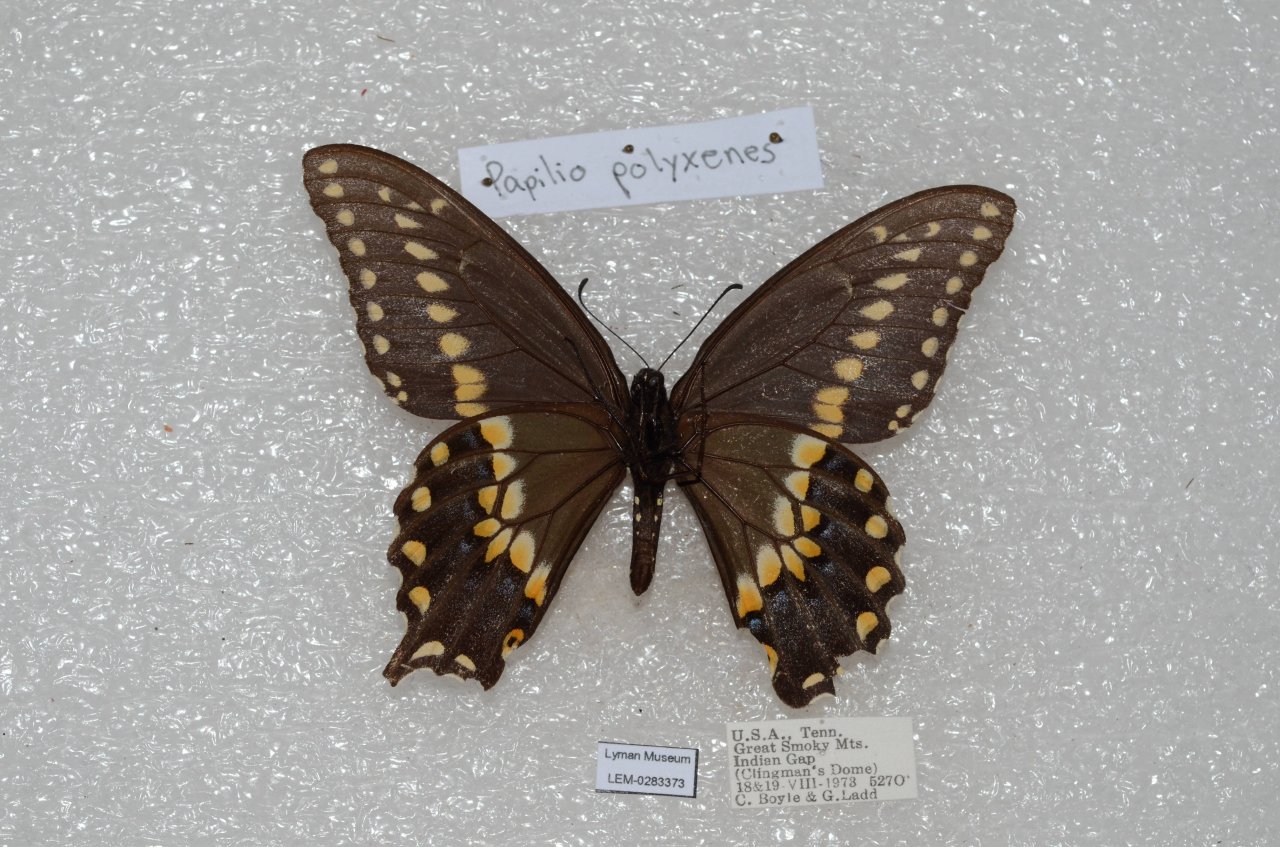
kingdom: Animalia
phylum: Arthropoda
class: Insecta
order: Lepidoptera
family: Papilionidae
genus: Papilio
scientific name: Papilio polyxenes
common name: Black Swallowtail
